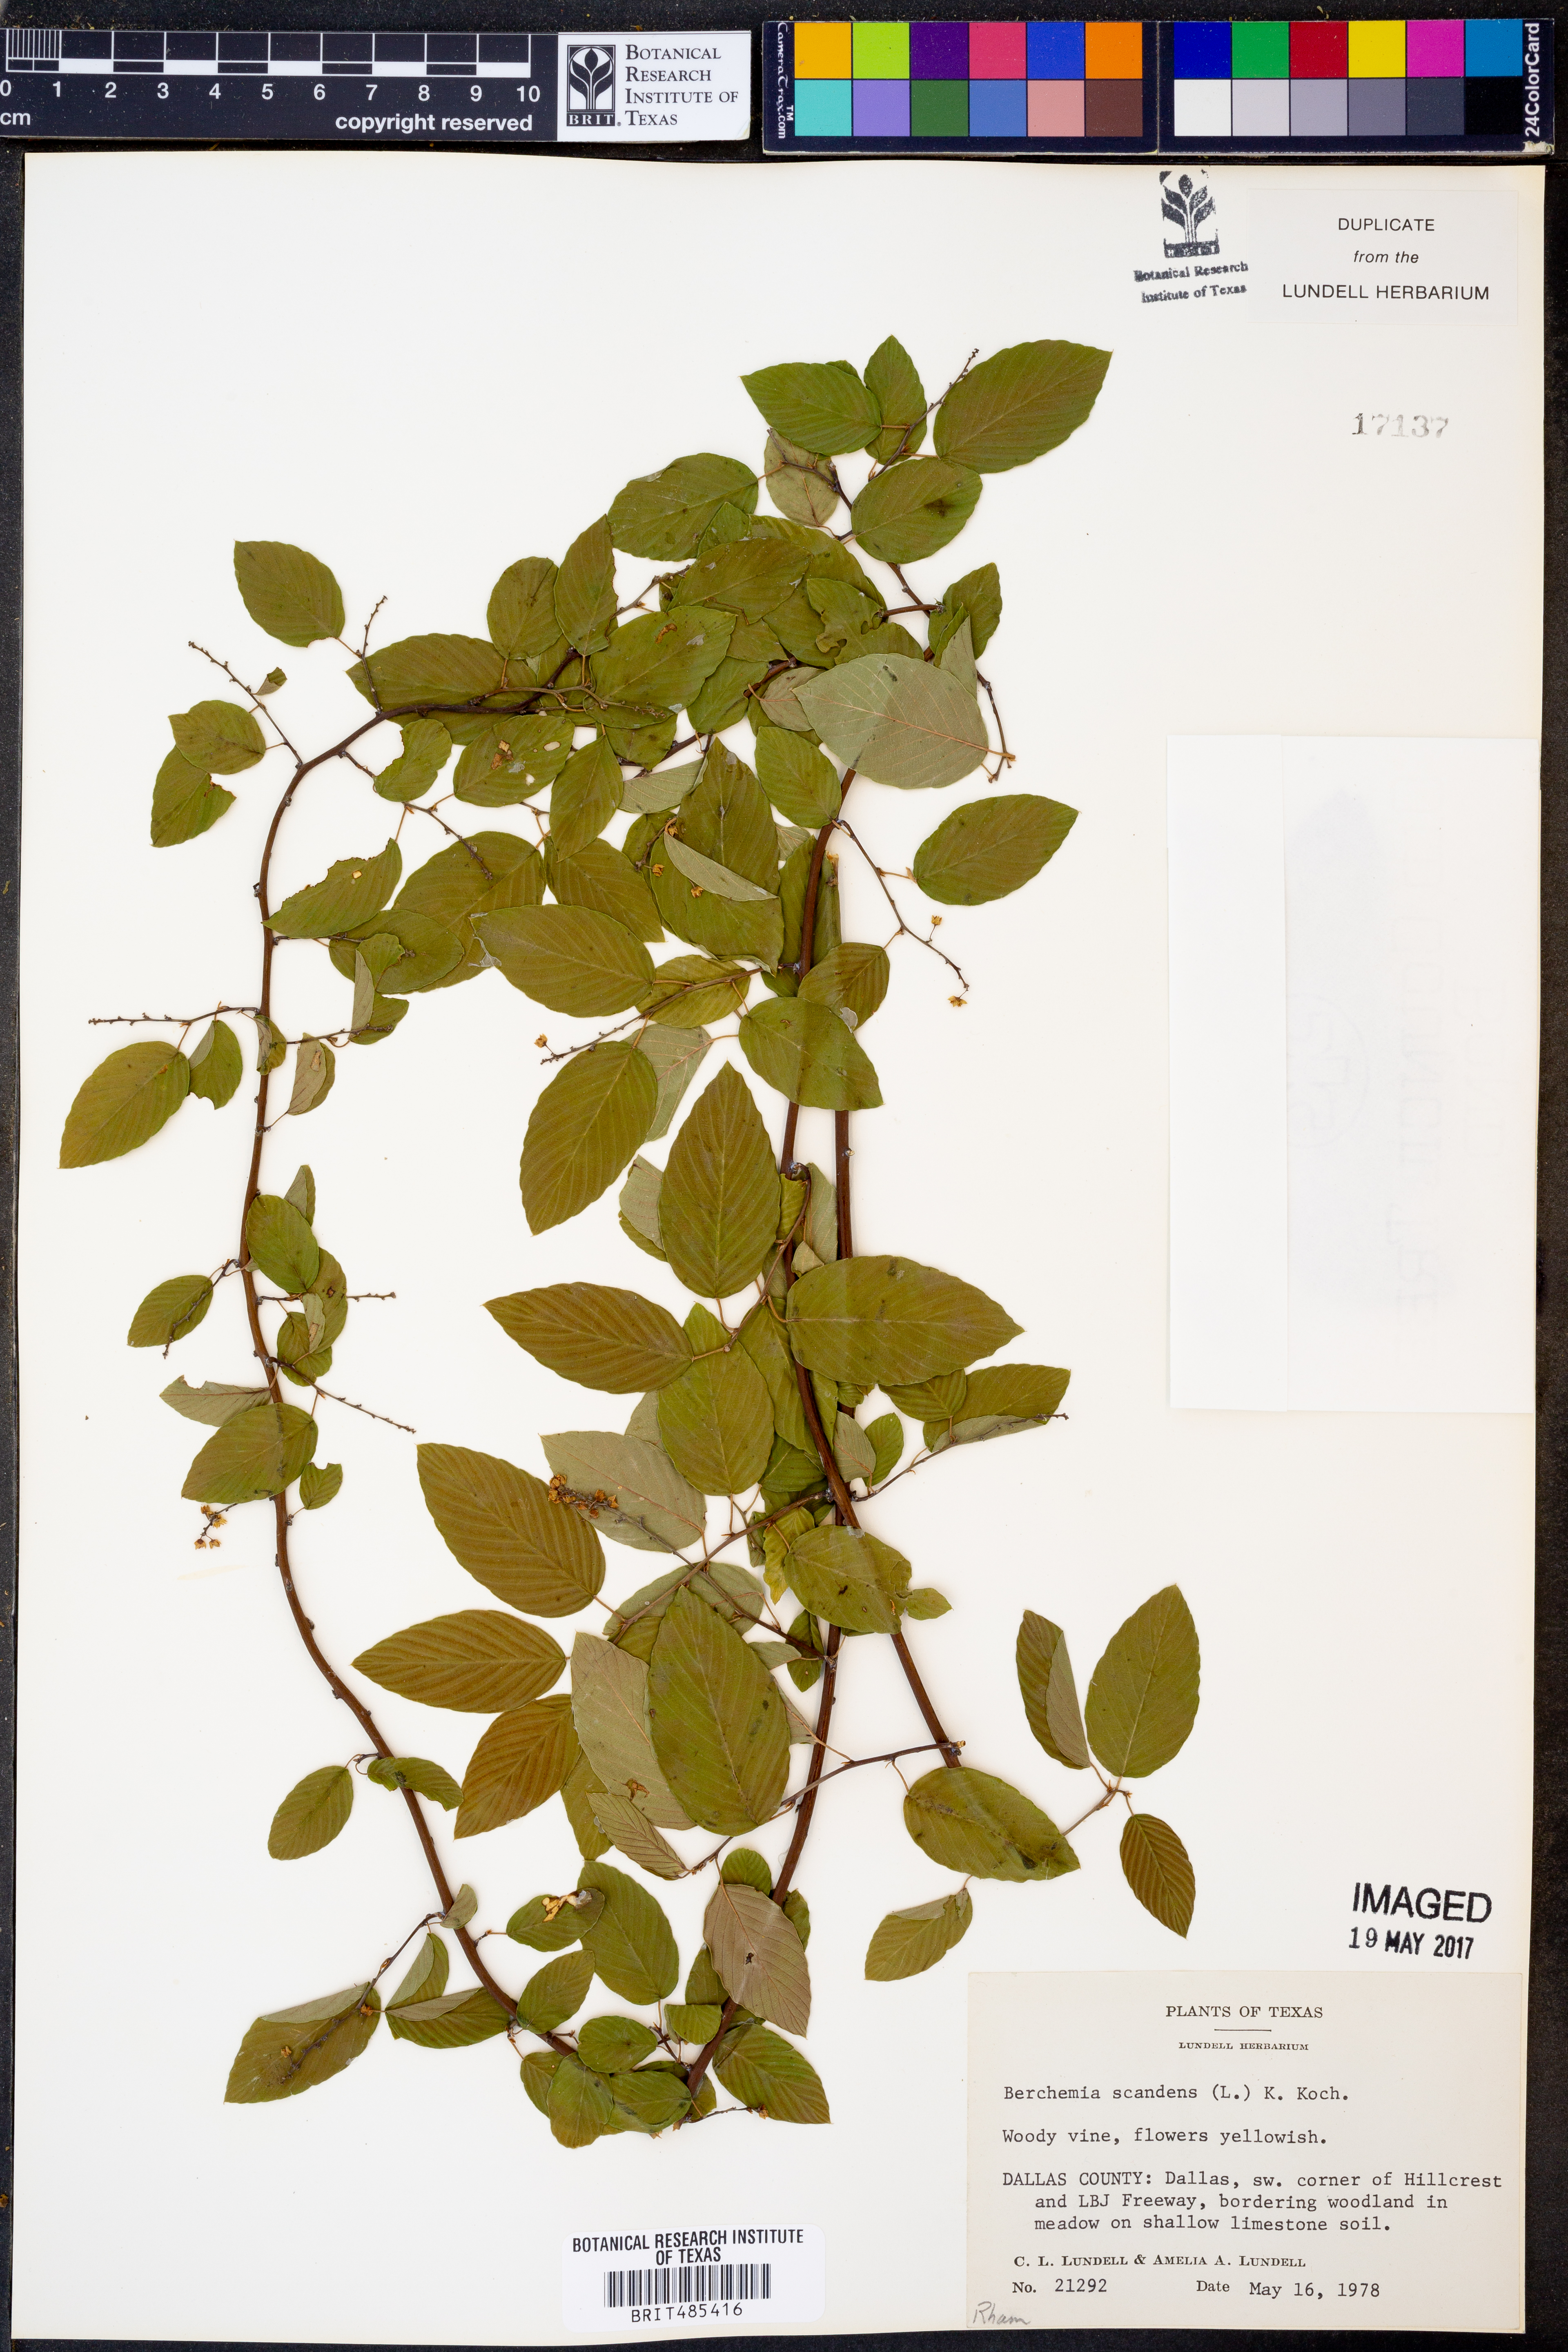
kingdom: Plantae
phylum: Tracheophyta
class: Magnoliopsida
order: Rosales
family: Rhamnaceae
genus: Berchemia
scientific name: Berchemia scandens
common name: Supplejack
